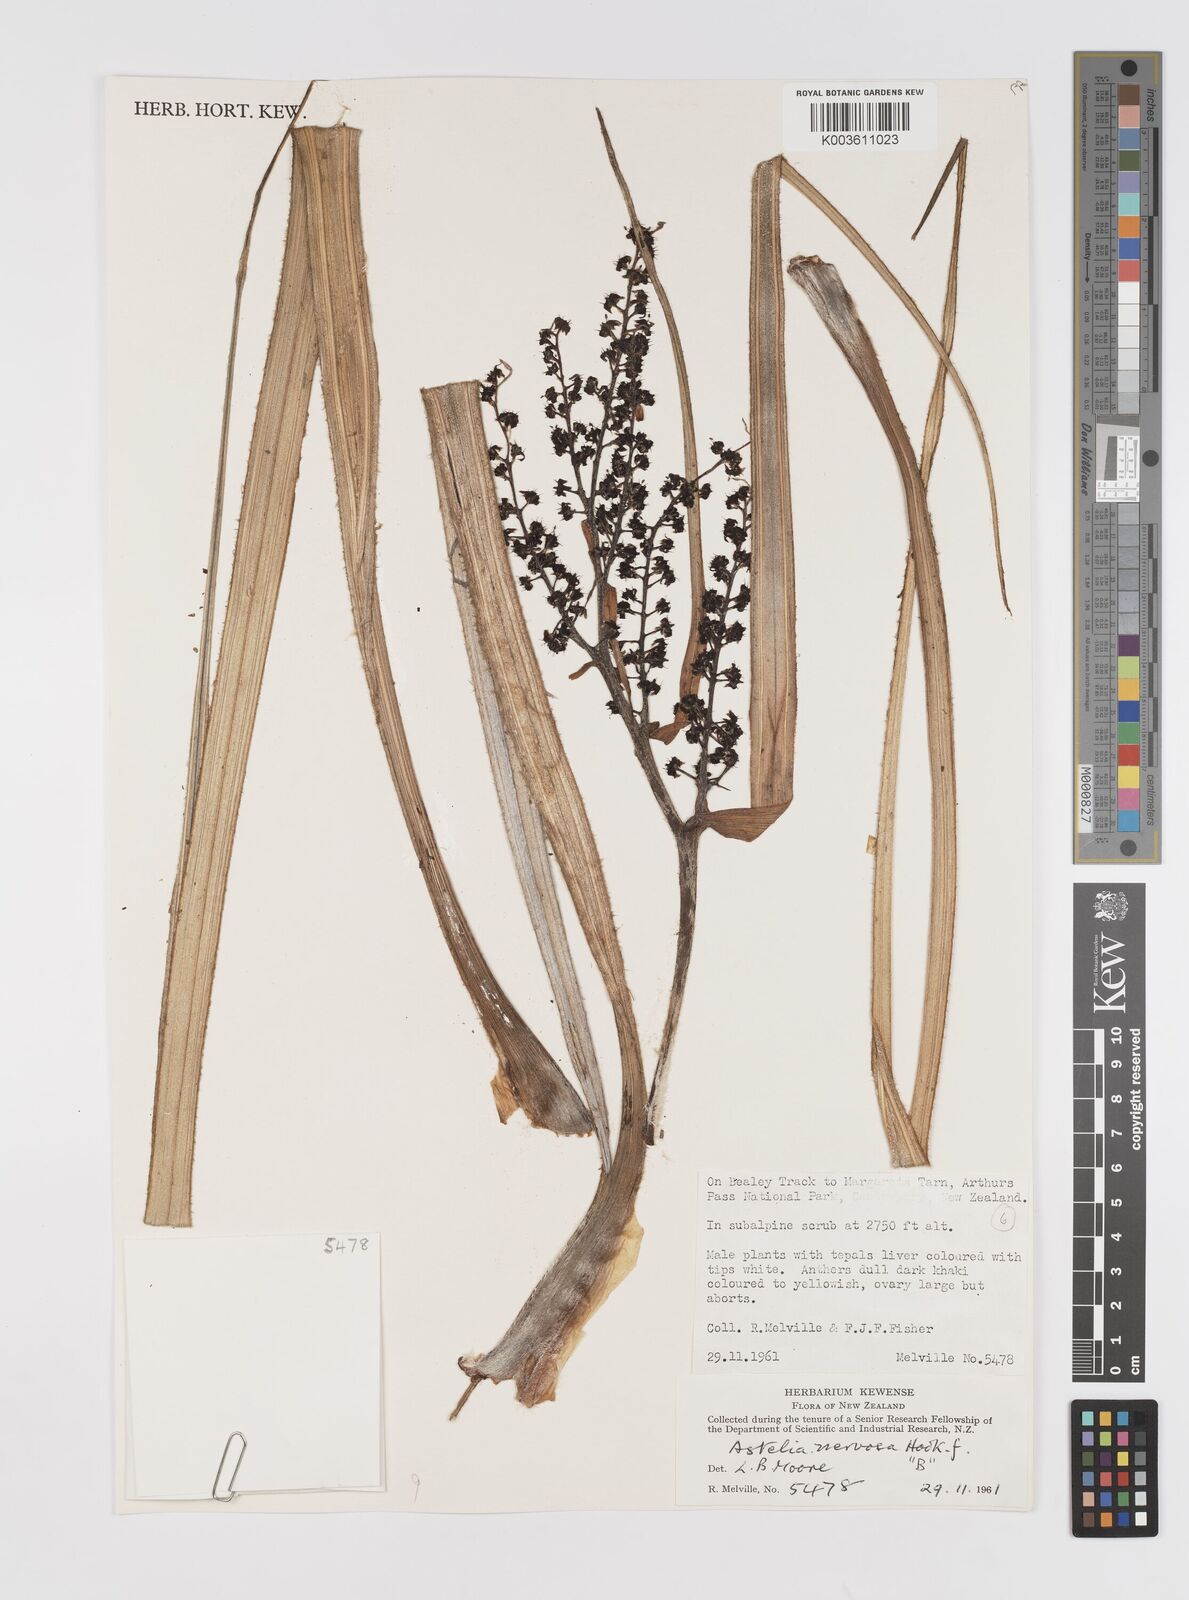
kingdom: Plantae
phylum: Tracheophyta
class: Liliopsida
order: Asparagales
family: Asteliaceae
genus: Astelia
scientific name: Astelia nervosa
